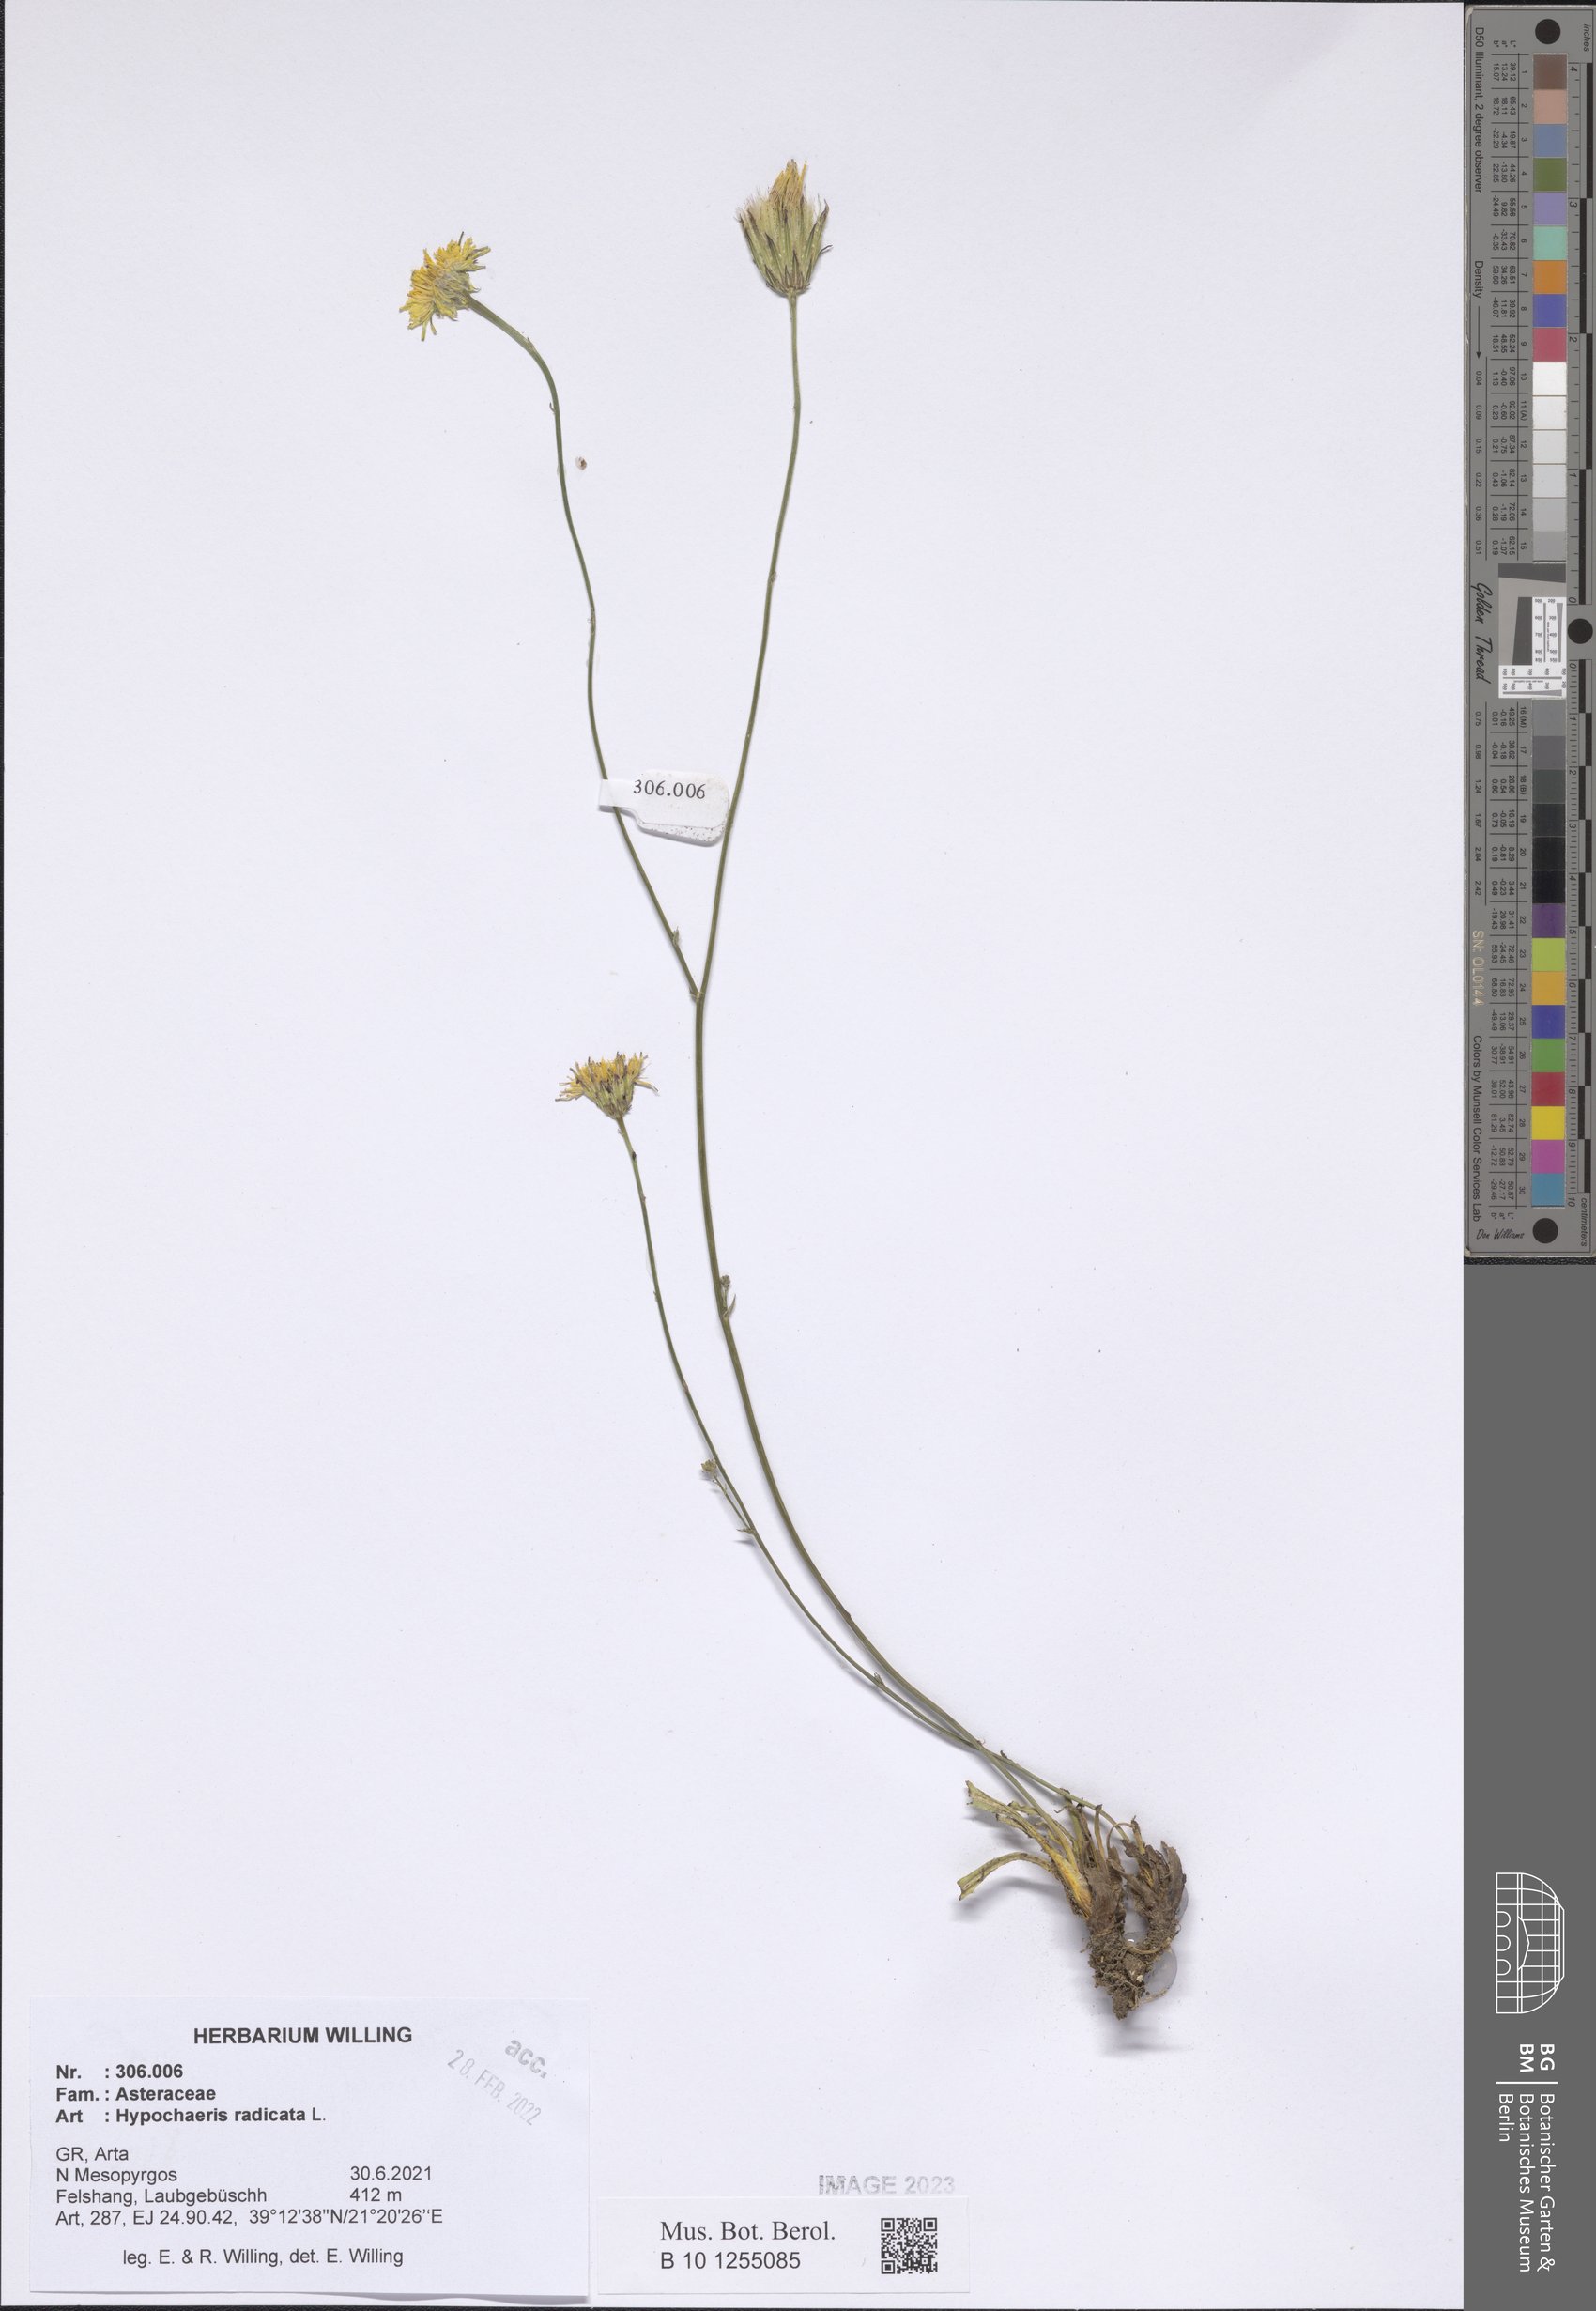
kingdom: Plantae
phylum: Tracheophyta
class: Magnoliopsida
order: Asterales
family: Asteraceae
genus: Hypochaeris
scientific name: Hypochaeris radicata
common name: Flatweed
